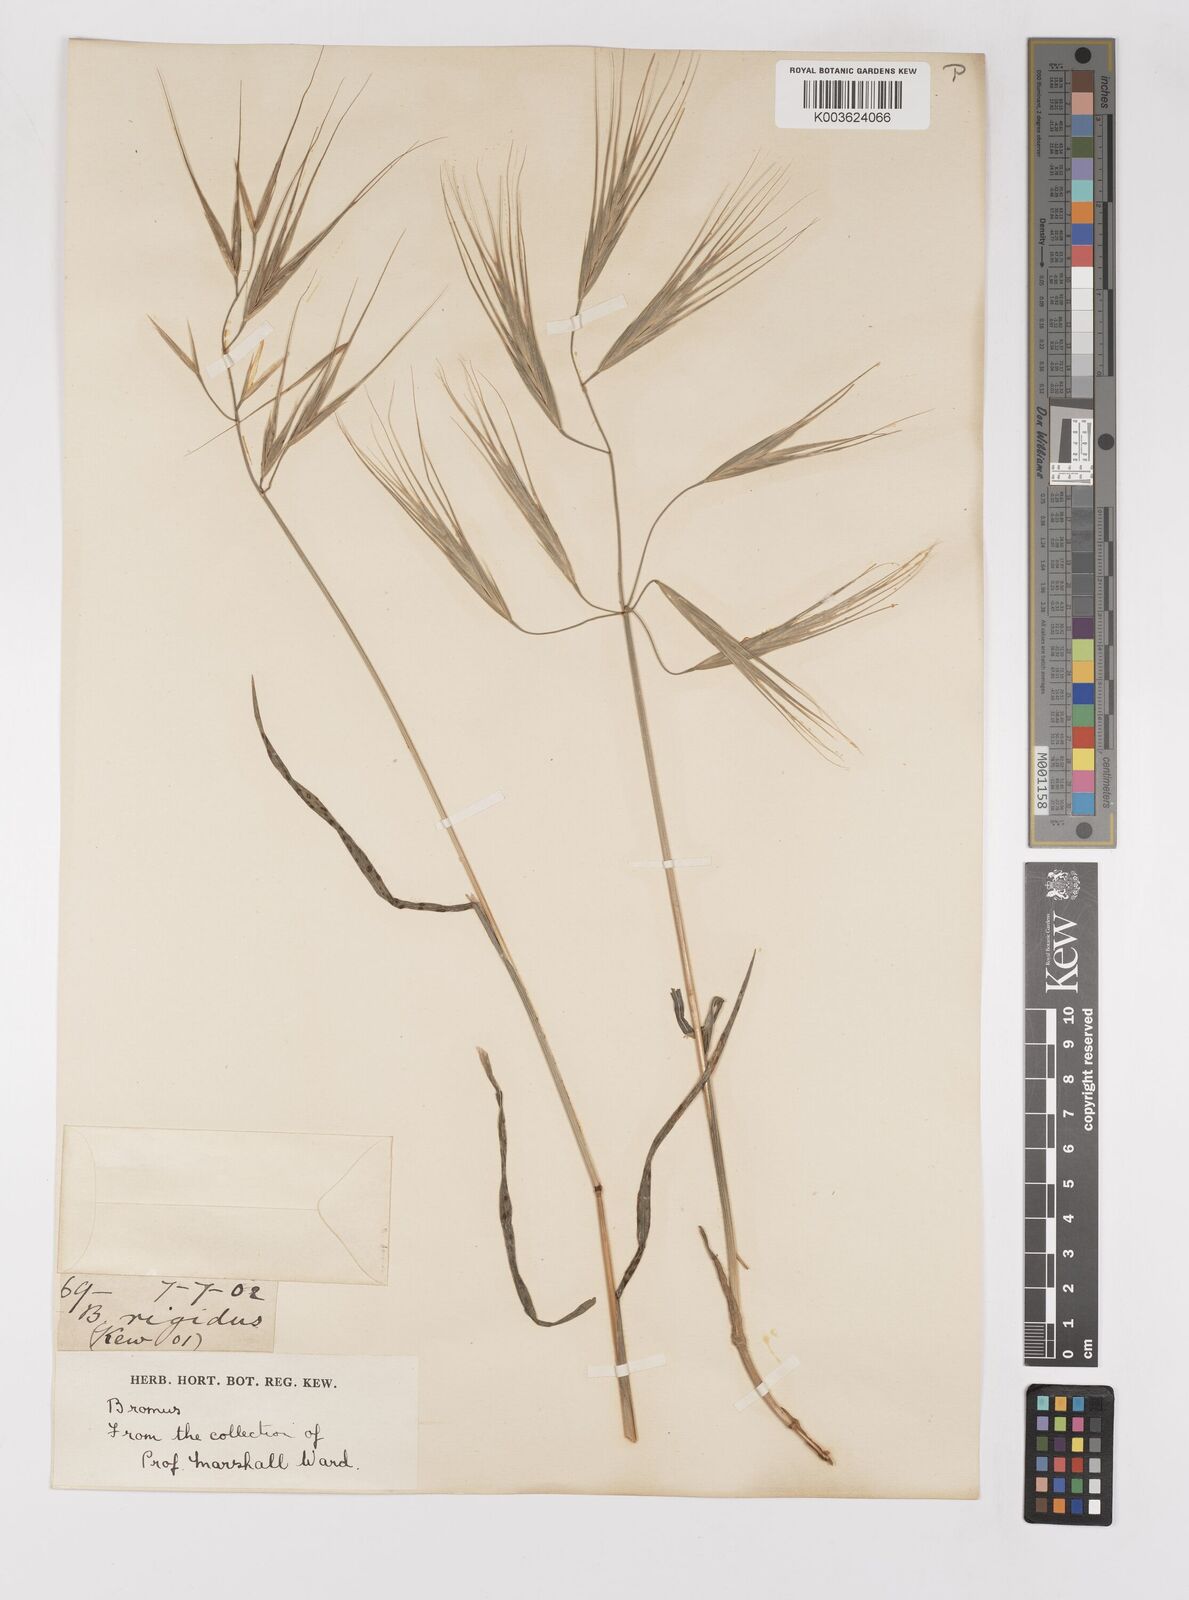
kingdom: Plantae
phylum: Tracheophyta
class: Liliopsida
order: Poales
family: Poaceae
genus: Bromus
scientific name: Bromus diandrus
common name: Ripgut brome
